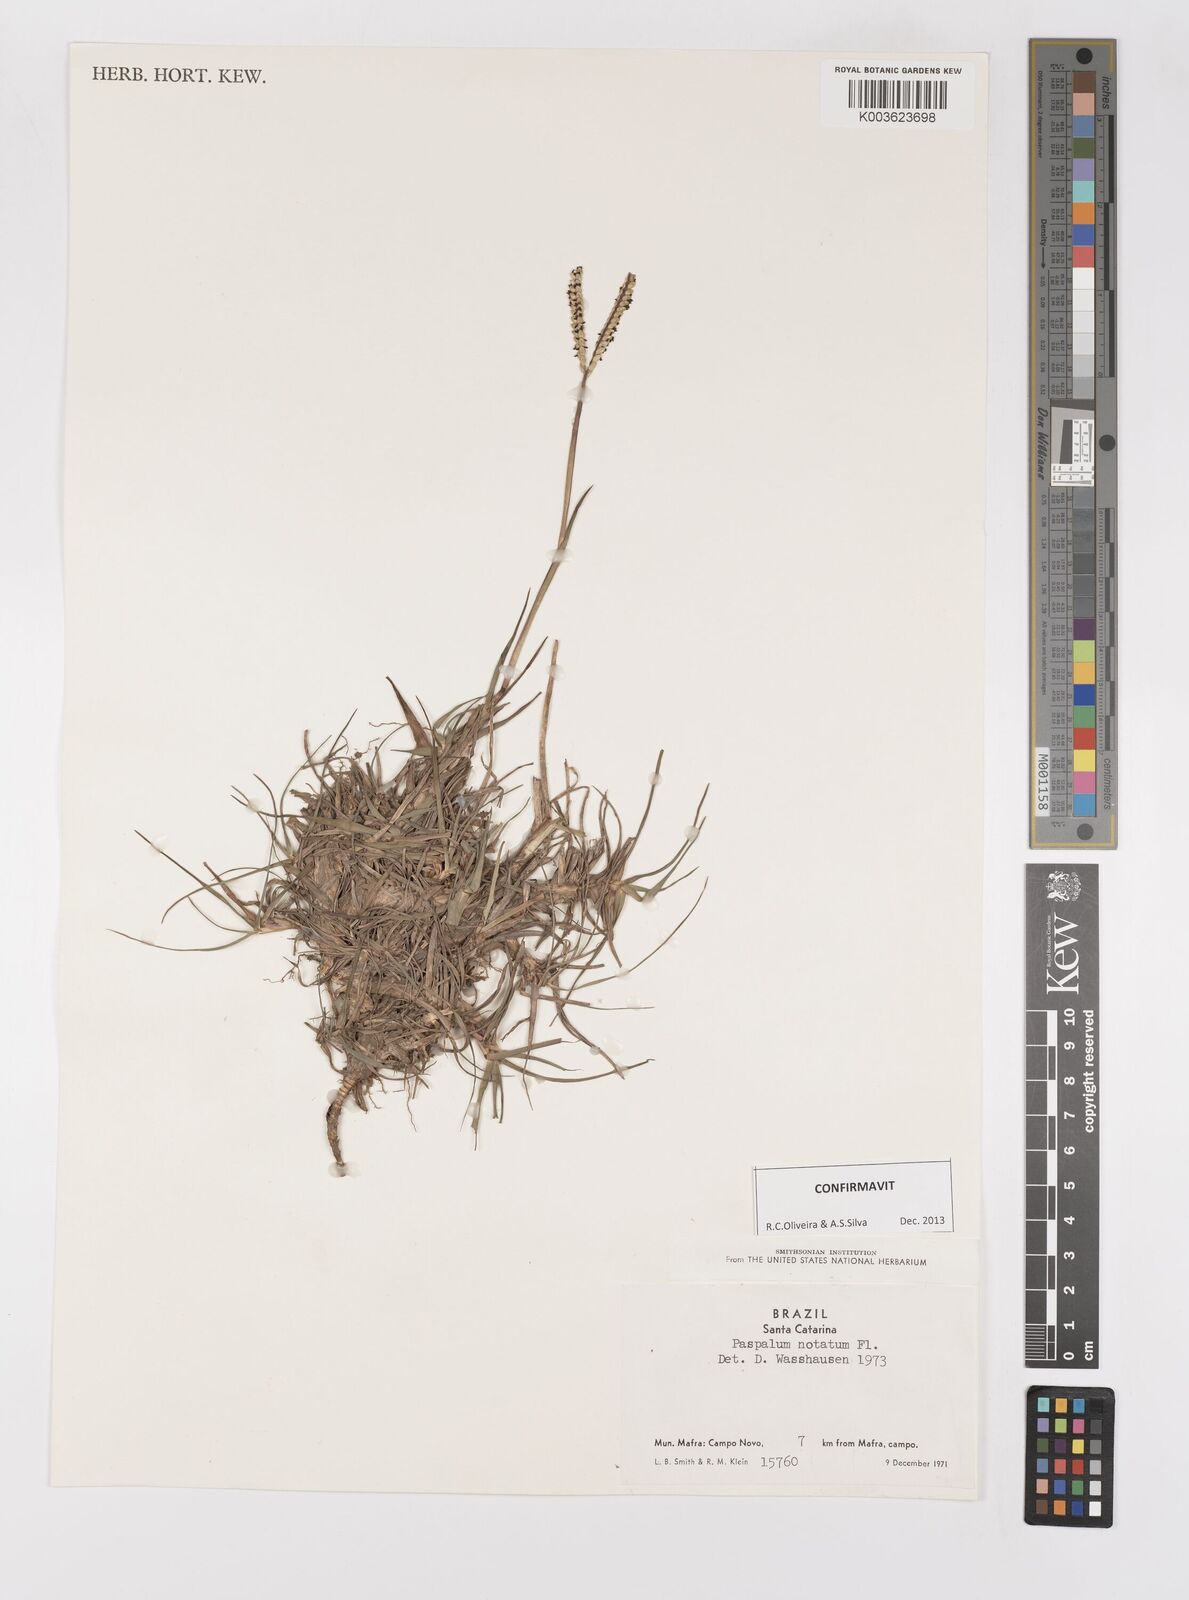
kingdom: Plantae
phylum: Tracheophyta
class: Liliopsida
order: Poales
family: Poaceae
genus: Paspalum
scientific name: Paspalum notatum
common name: Bahiagrass
